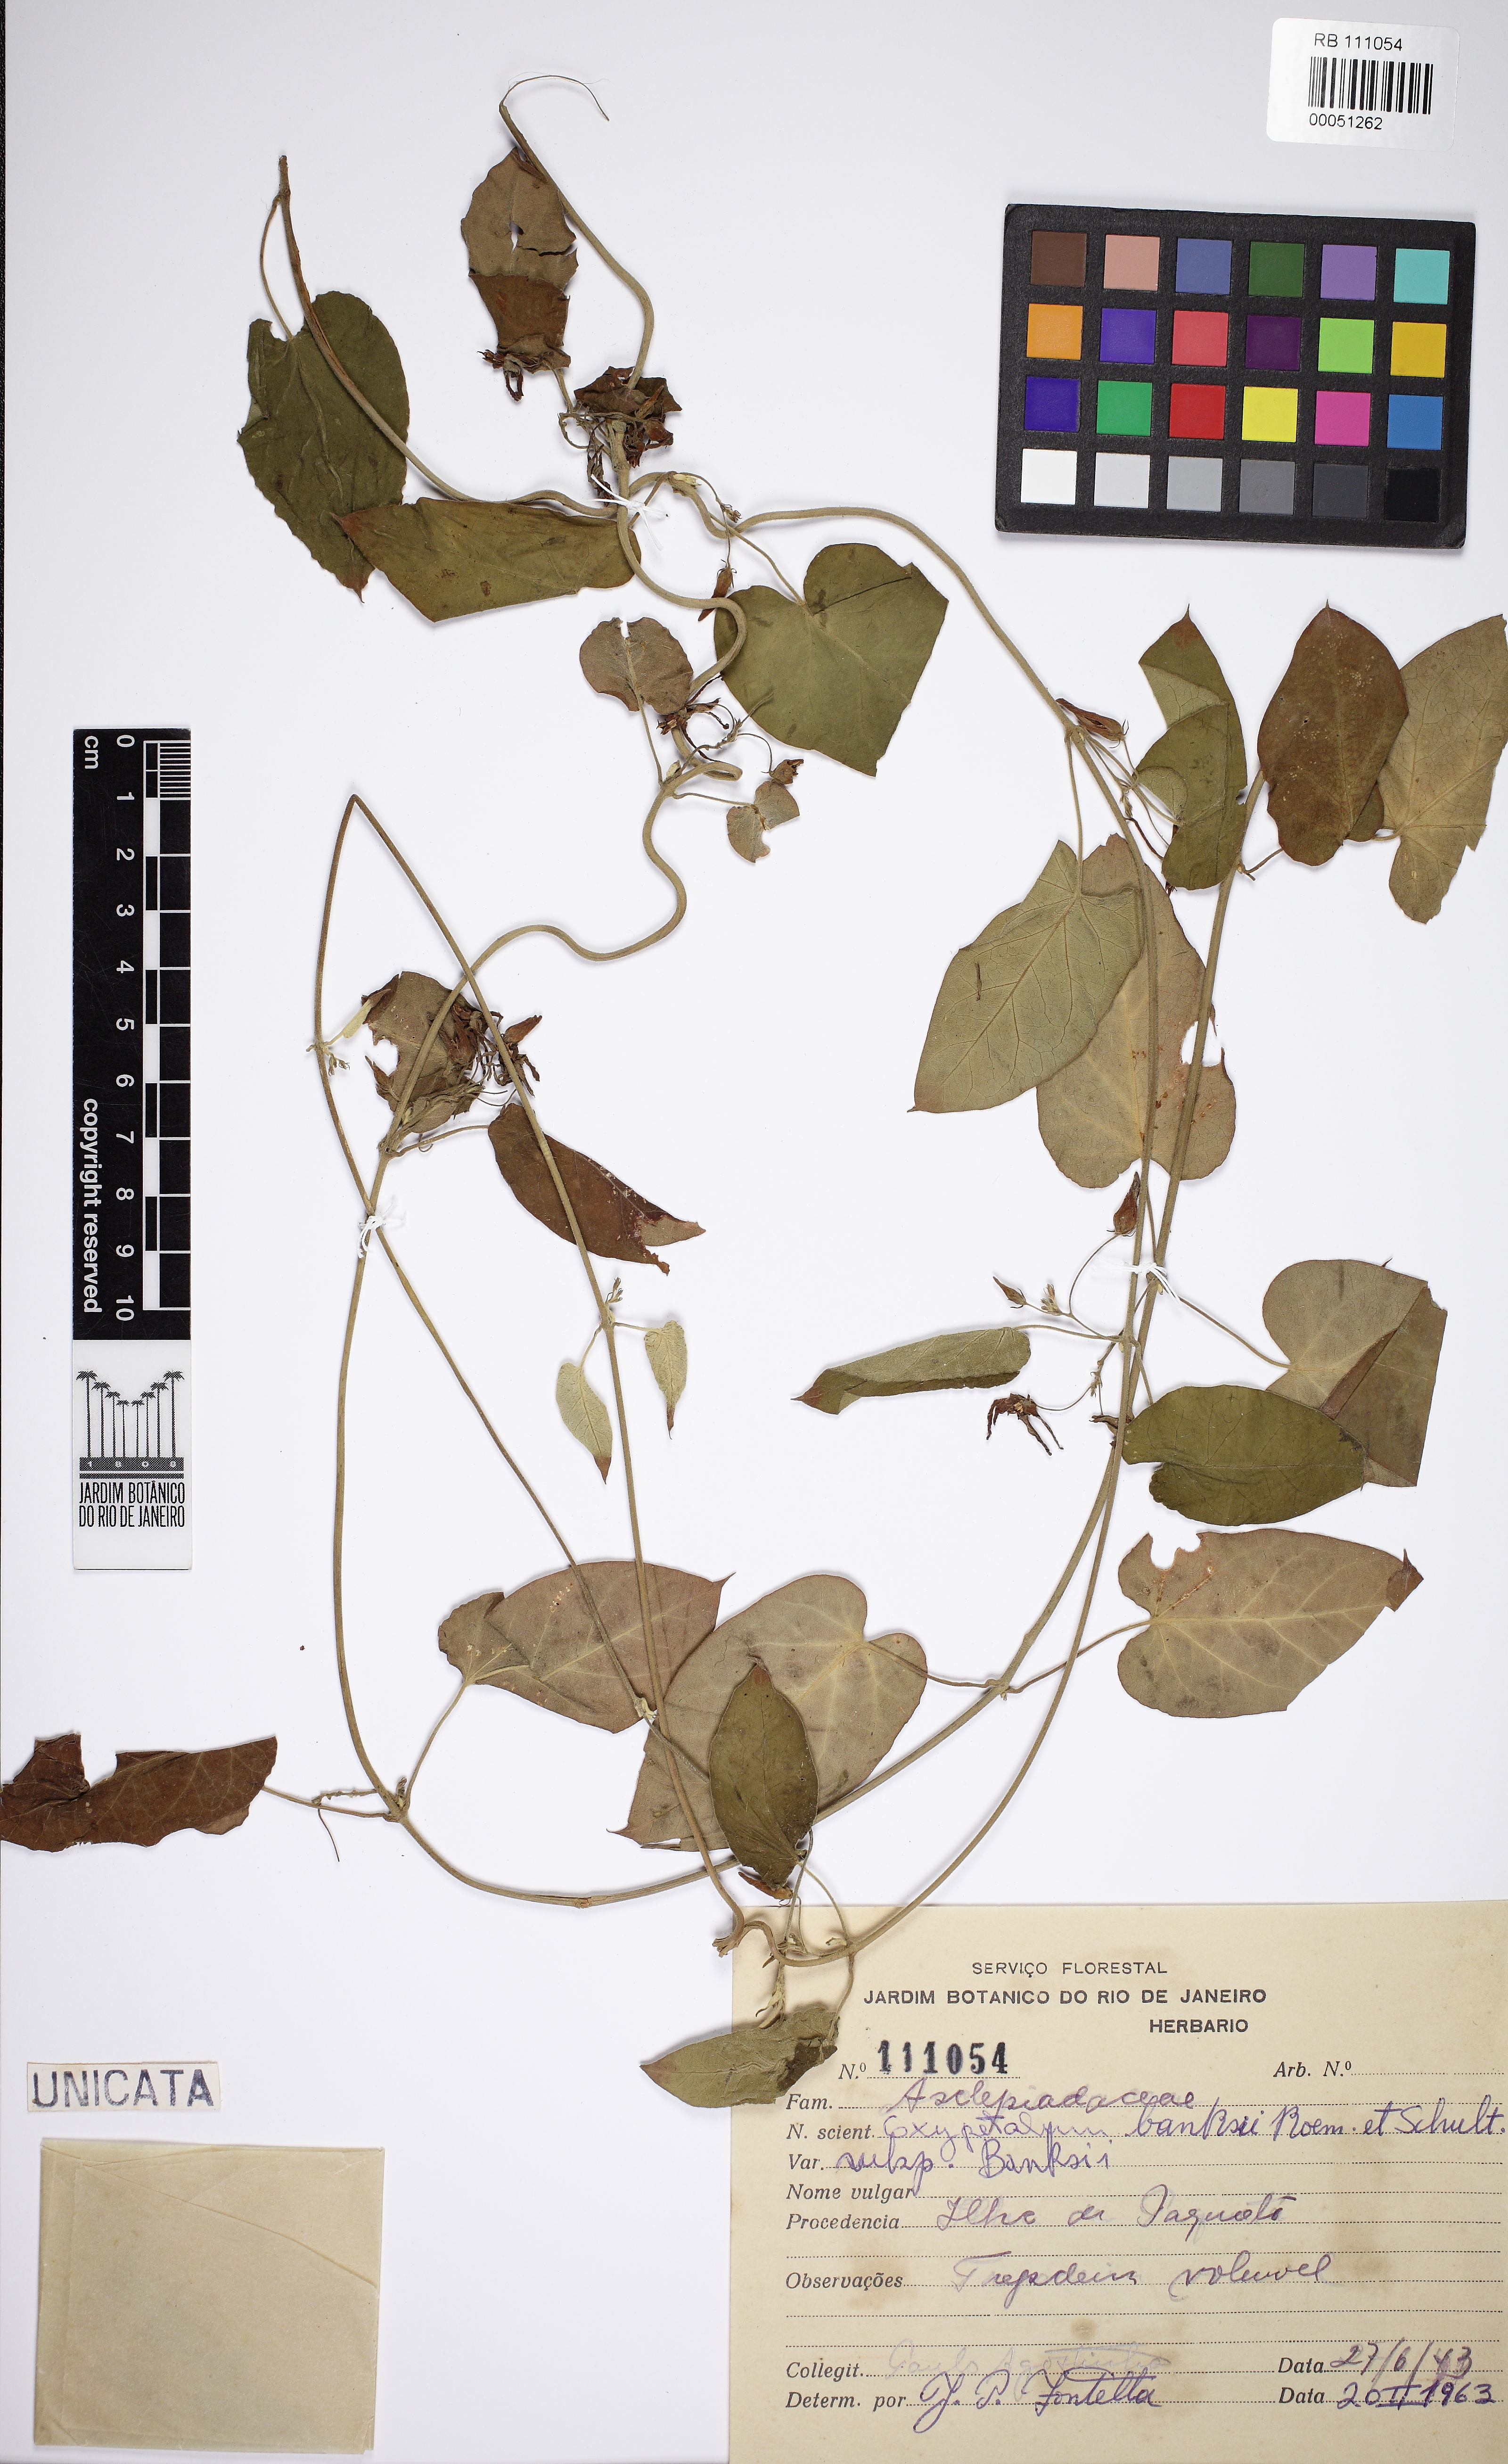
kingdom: Plantae
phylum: Tracheophyta
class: Magnoliopsida
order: Gentianales
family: Apocynaceae
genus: Oxypetalum
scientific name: Oxypetalum banksii
